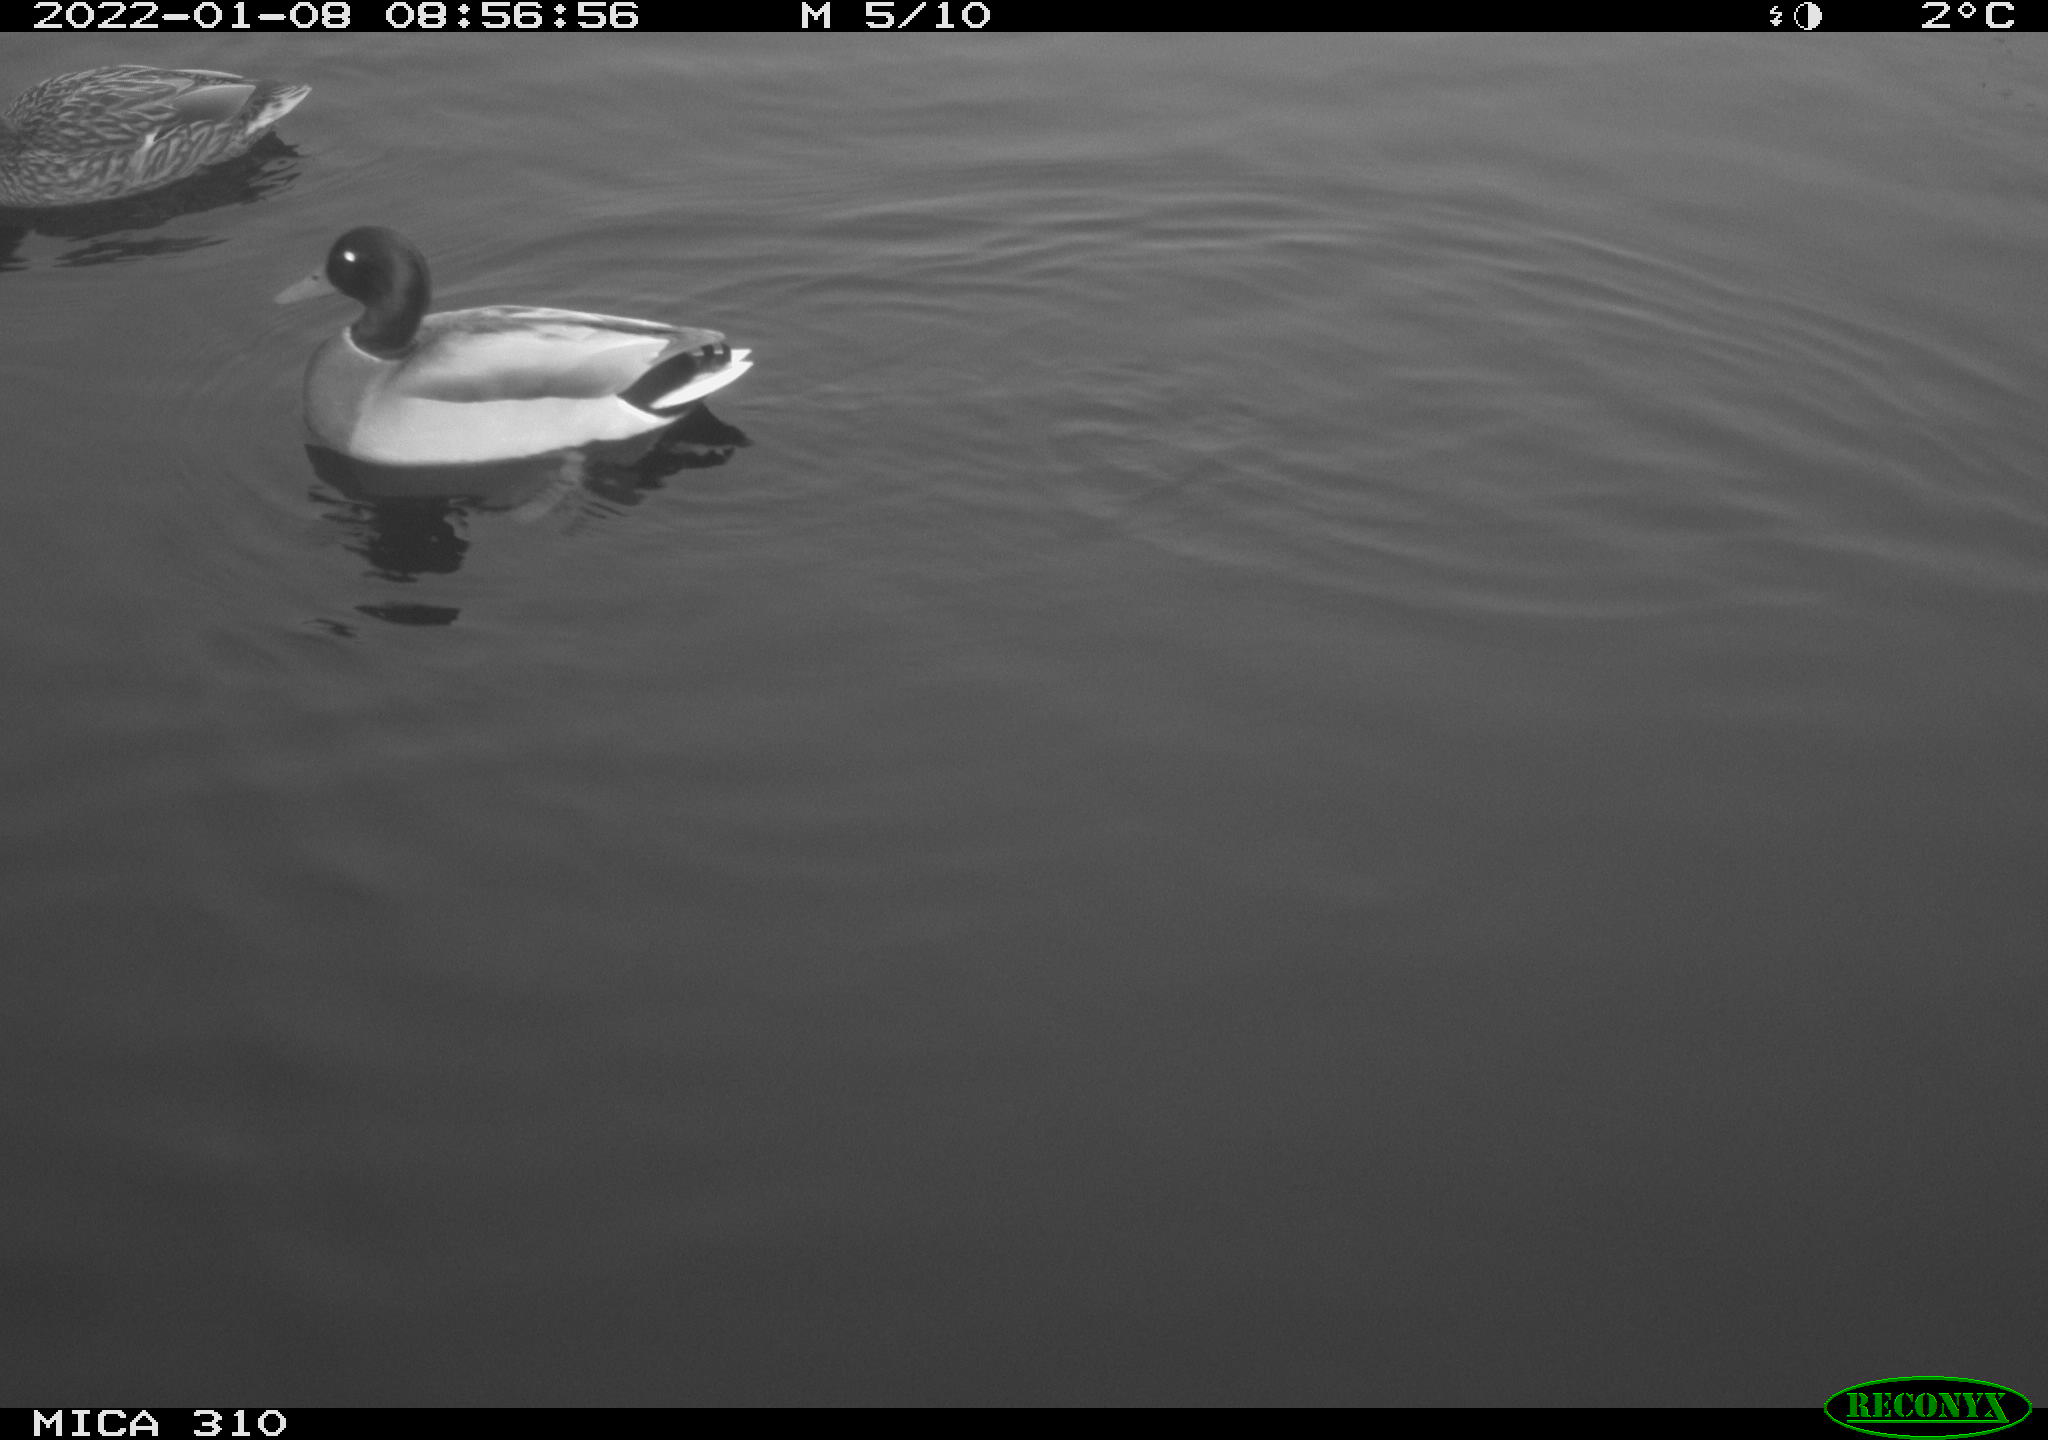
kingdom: Animalia
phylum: Chordata
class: Aves
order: Anseriformes
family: Anatidae
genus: Anas
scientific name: Anas
